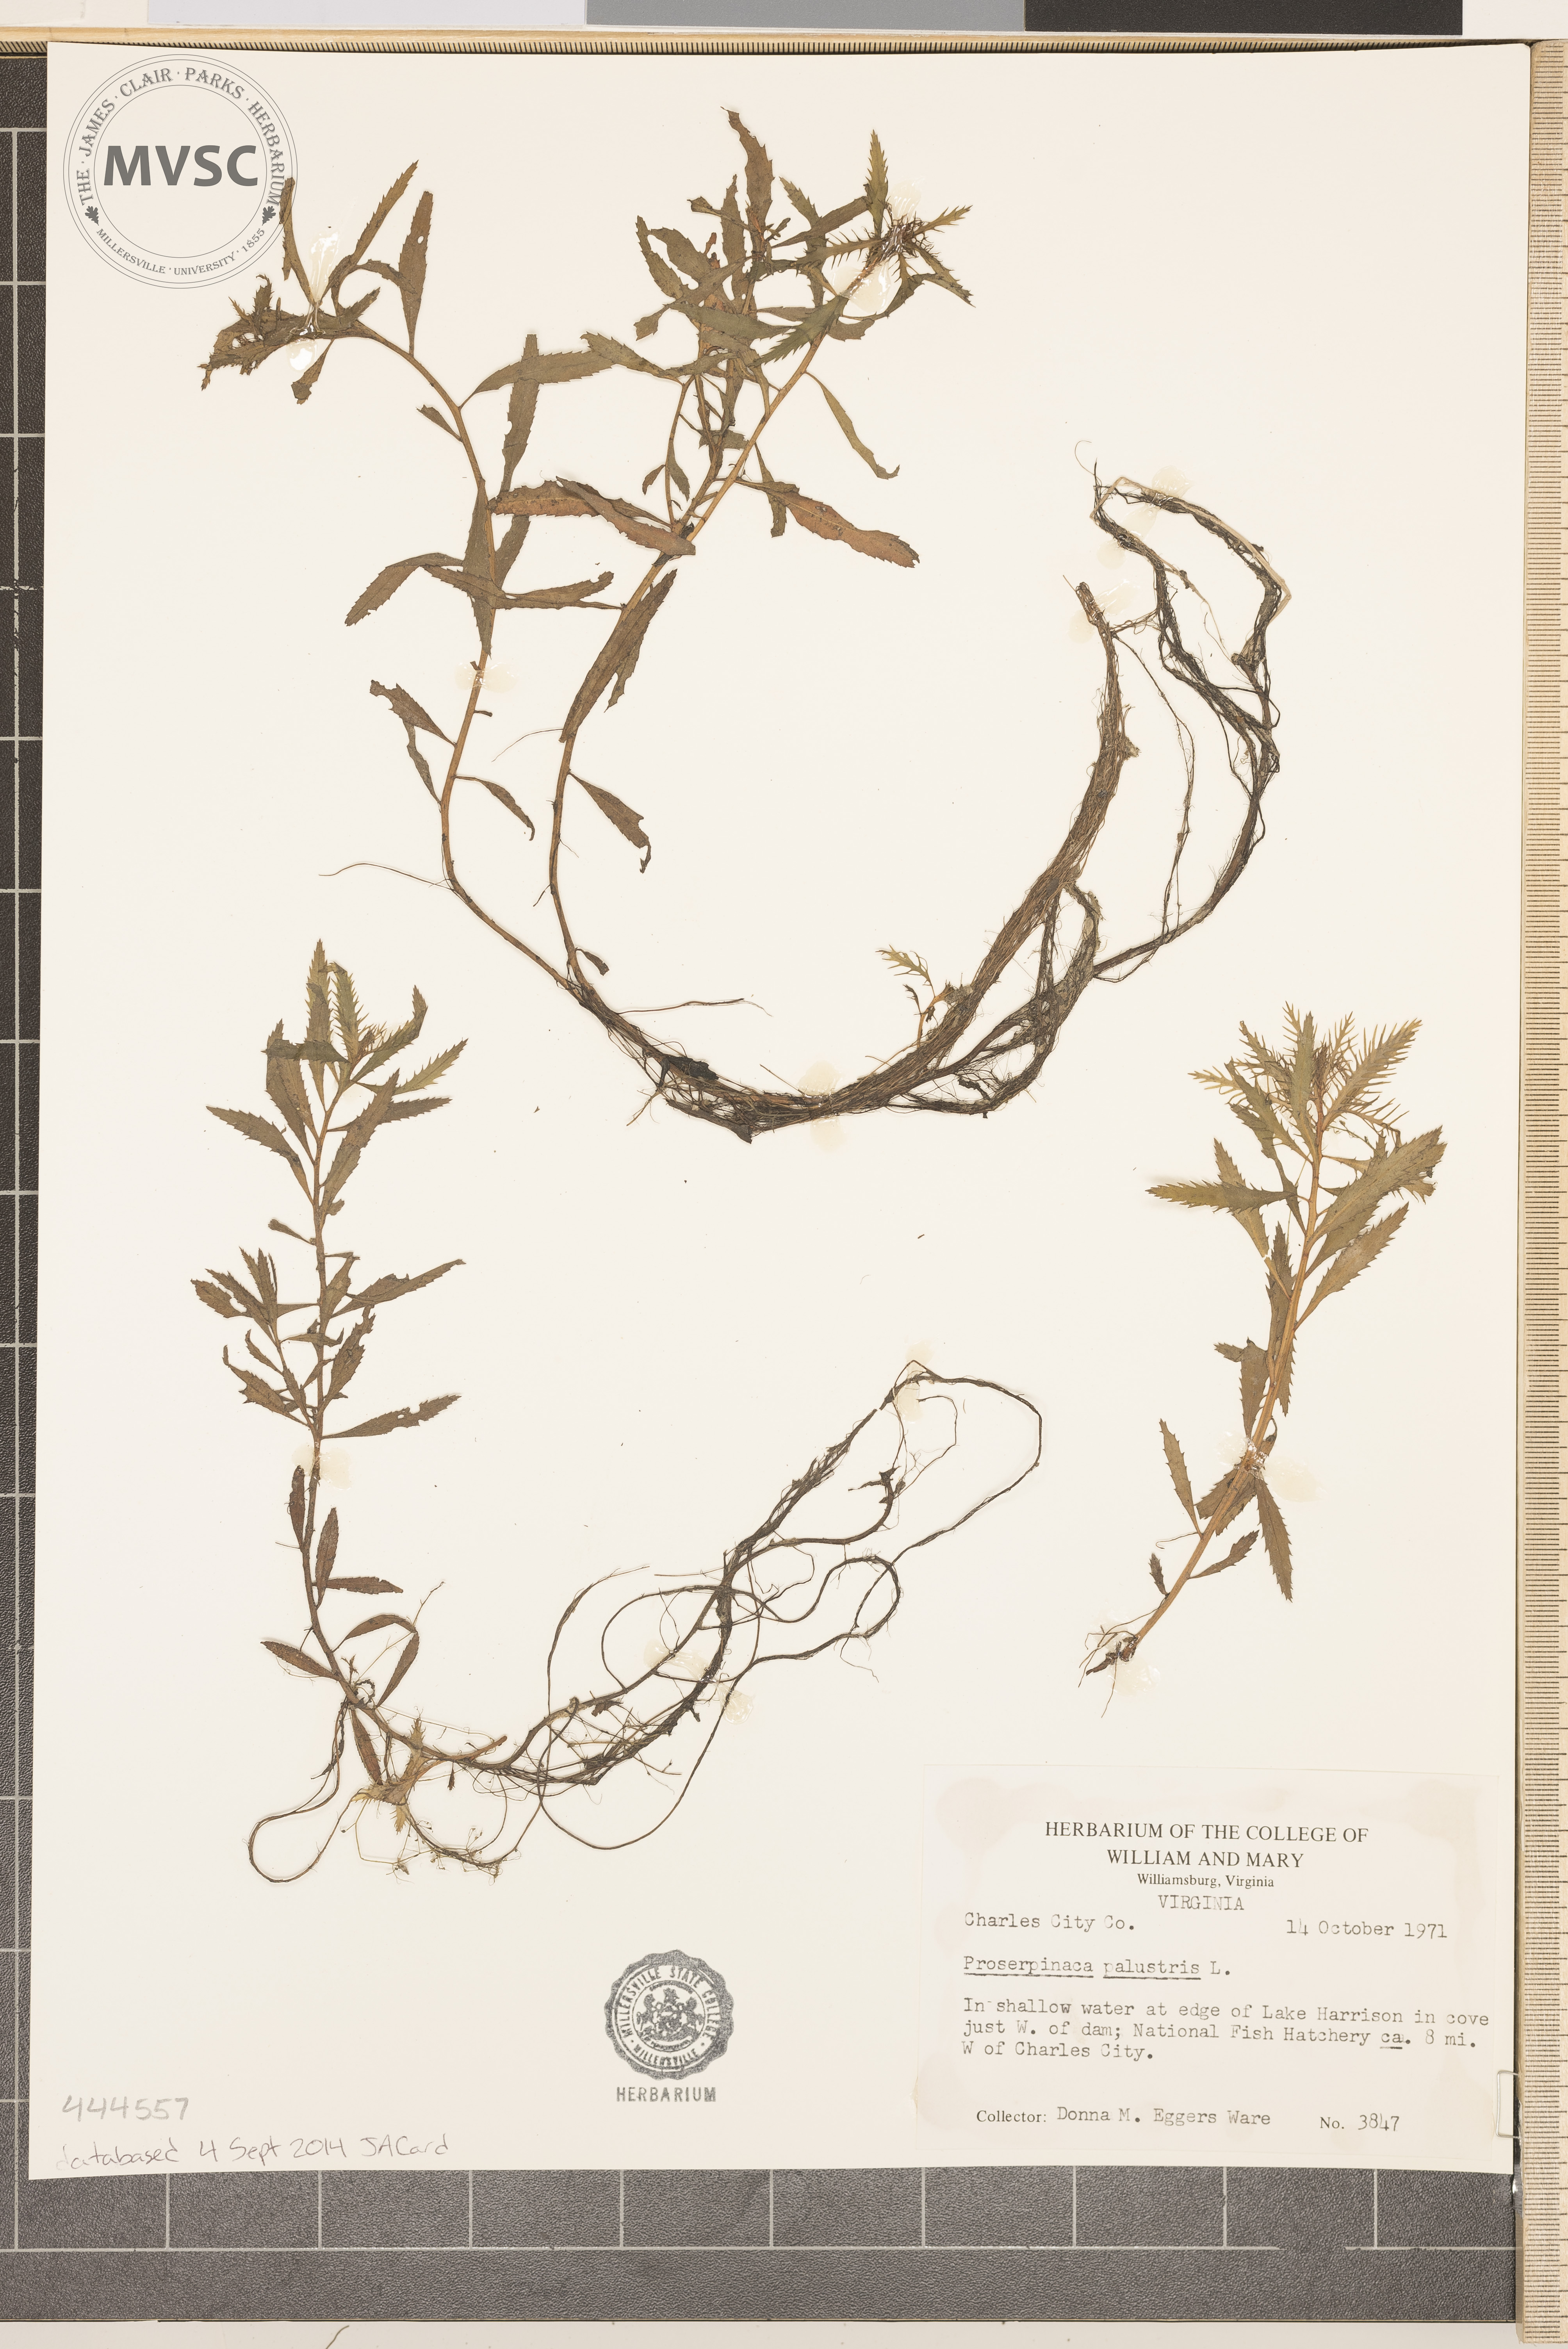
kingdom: Plantae
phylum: Tracheophyta
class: Magnoliopsida
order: Saxifragales
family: Haloragaceae
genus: Proserpinaca
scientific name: Proserpinaca palustris
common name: Marsh mermaidweed
